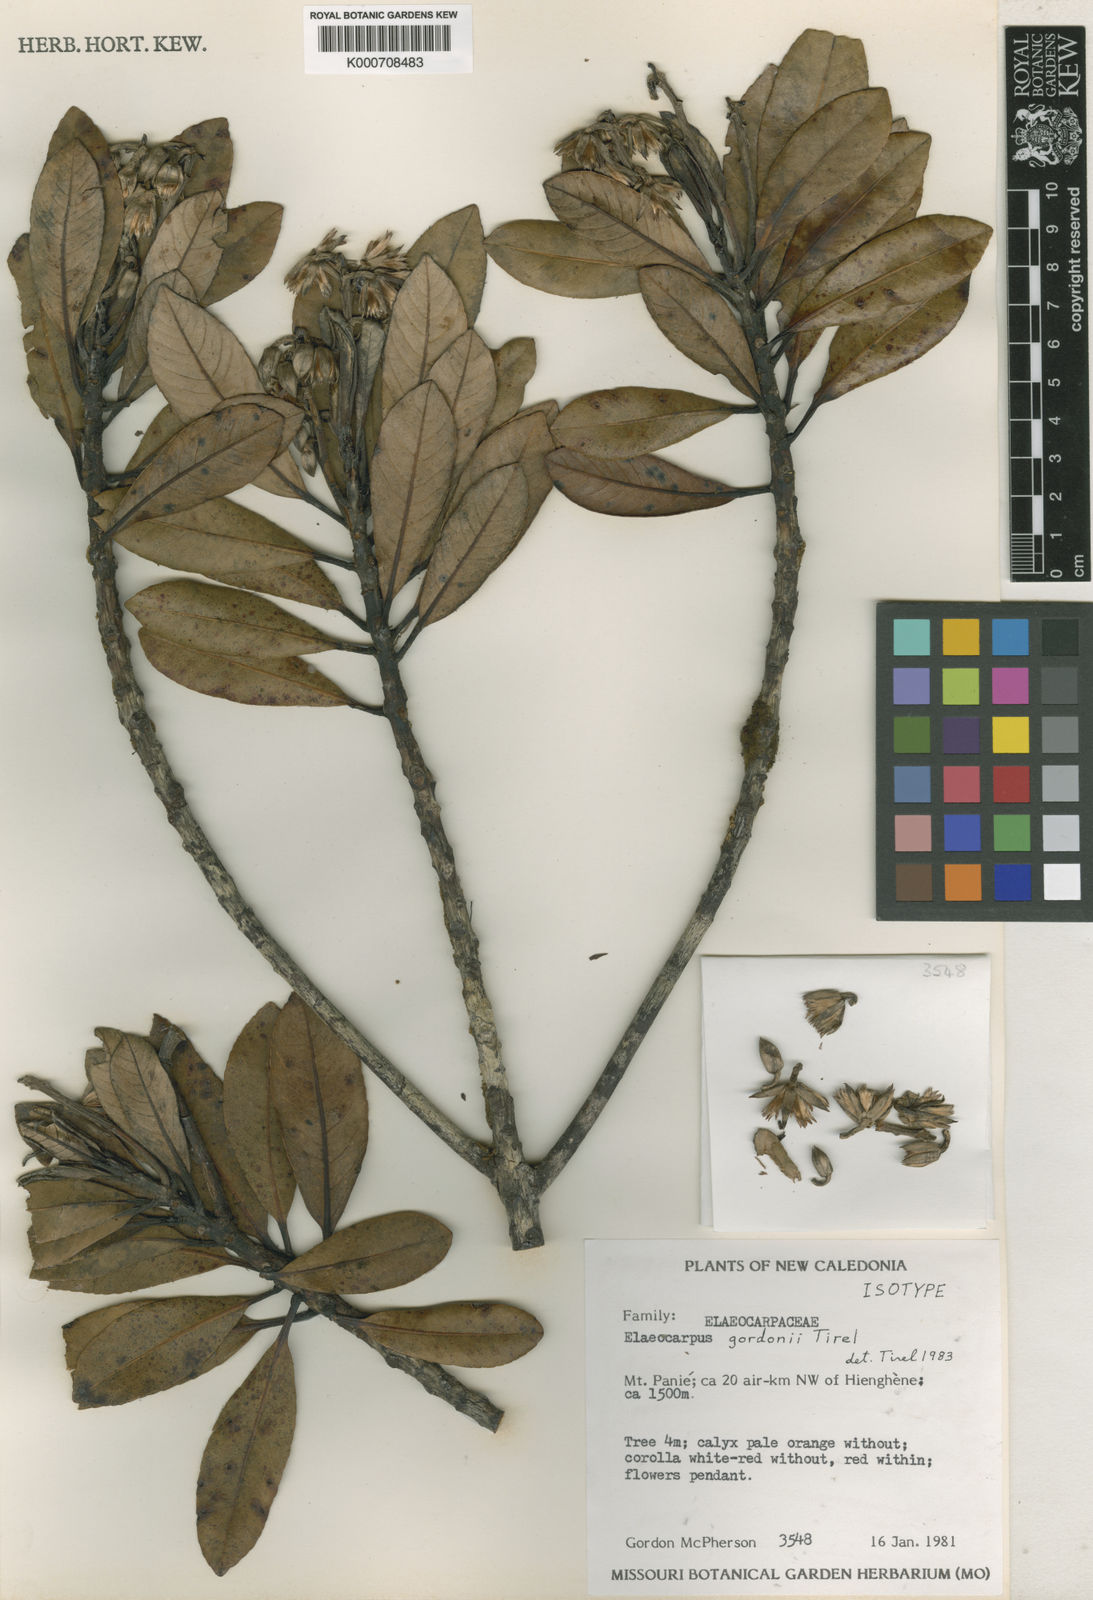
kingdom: Plantae
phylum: Tracheophyta
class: Magnoliopsida
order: Oxalidales
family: Elaeocarpaceae
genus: Elaeocarpus
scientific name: Elaeocarpus gordonii
